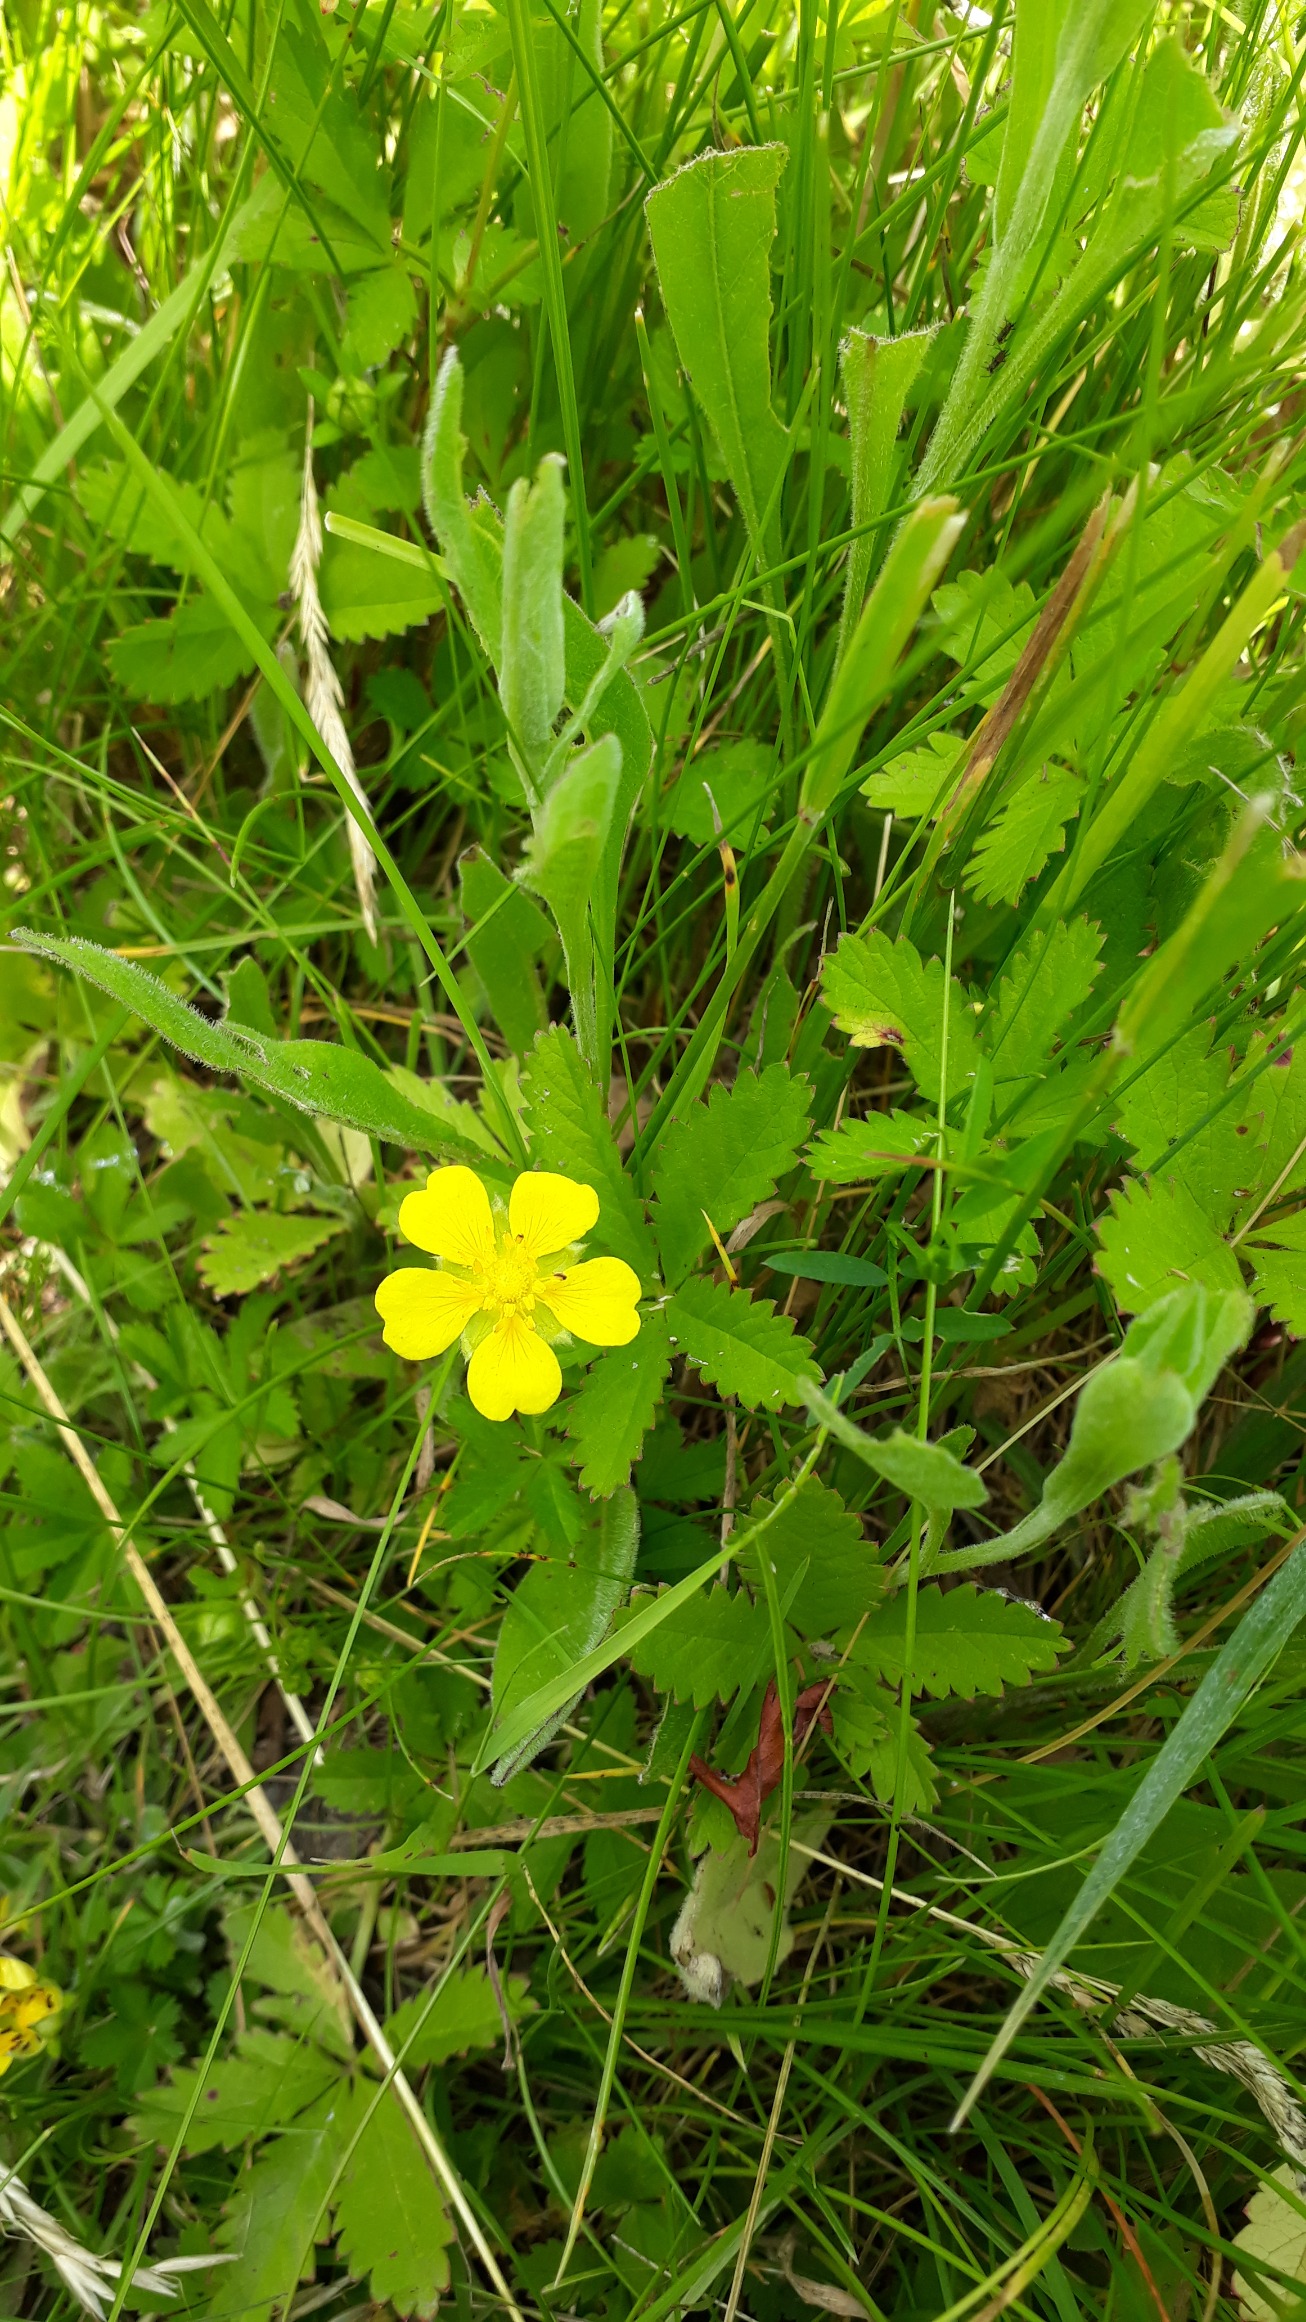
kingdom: Plantae
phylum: Tracheophyta
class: Magnoliopsida
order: Rosales
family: Rosaceae
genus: Potentilla
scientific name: Potentilla reptans
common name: Krybende potentil
